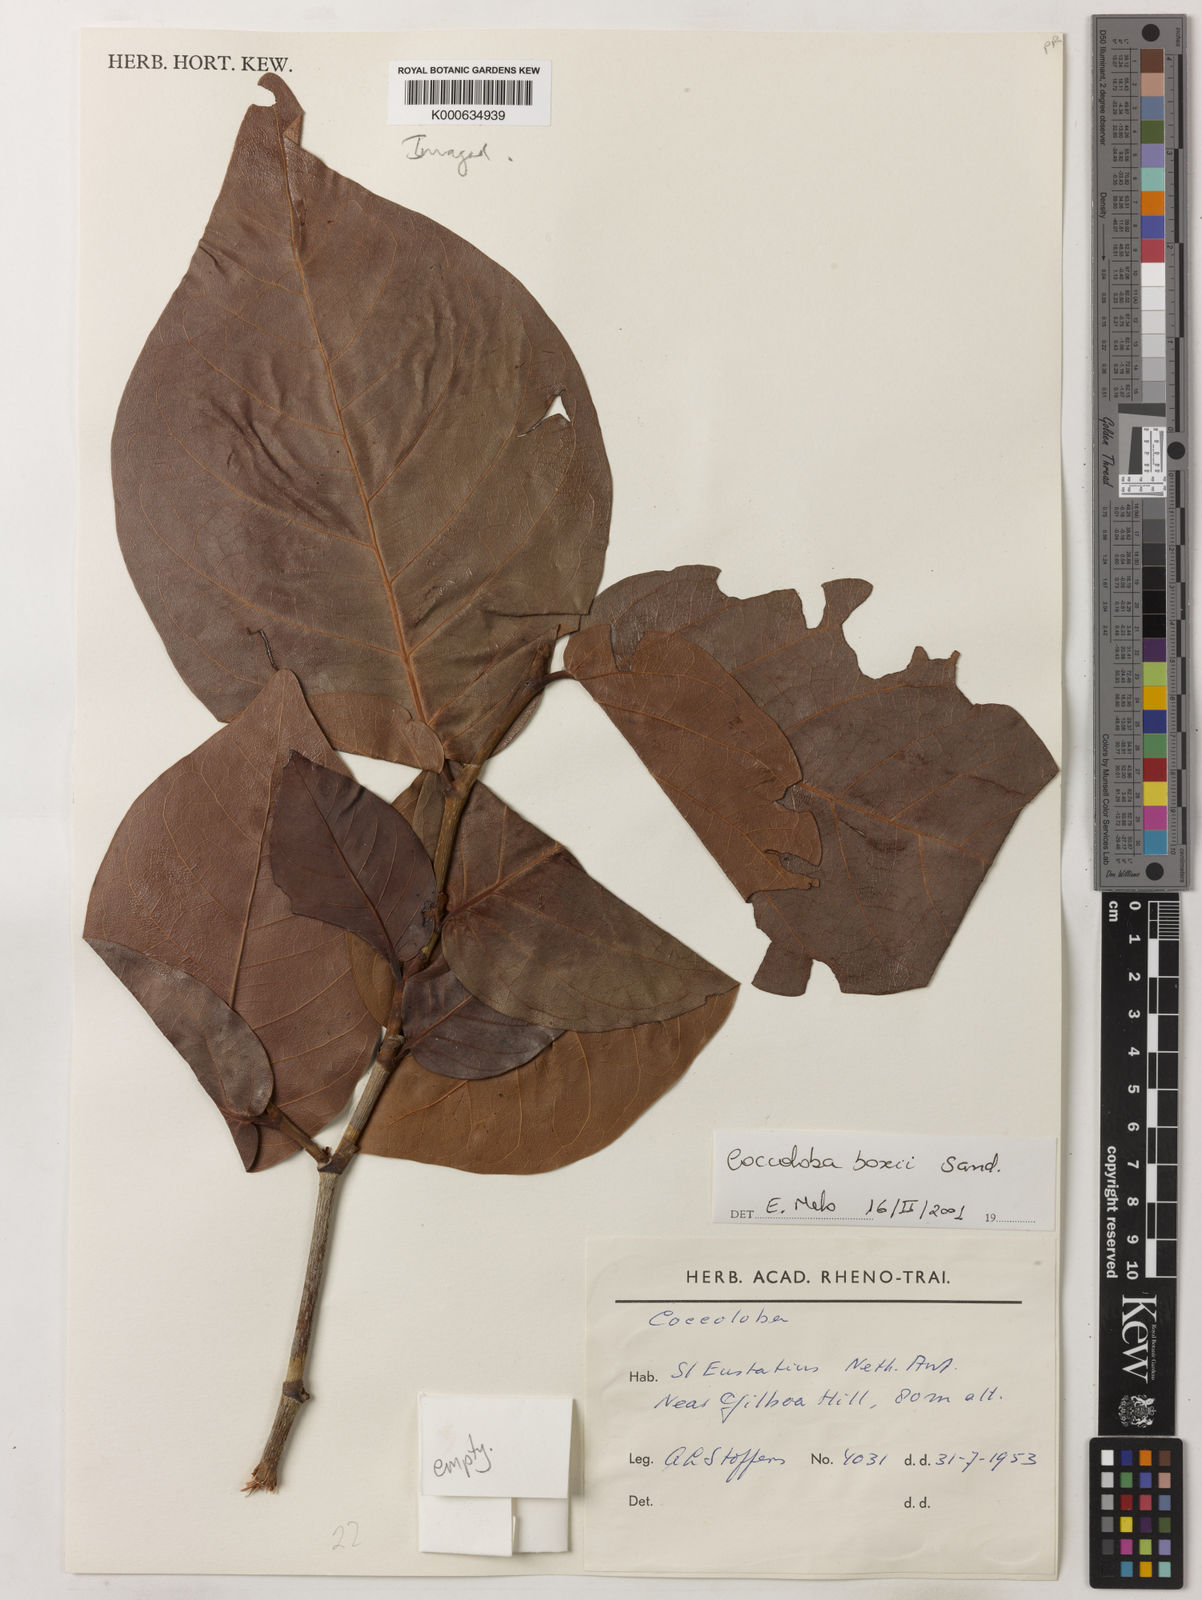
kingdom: Plantae
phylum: Tracheophyta
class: Magnoliopsida
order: Caryophyllales
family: Polygonaceae
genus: Coccoloba
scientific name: Coccoloba boxii
